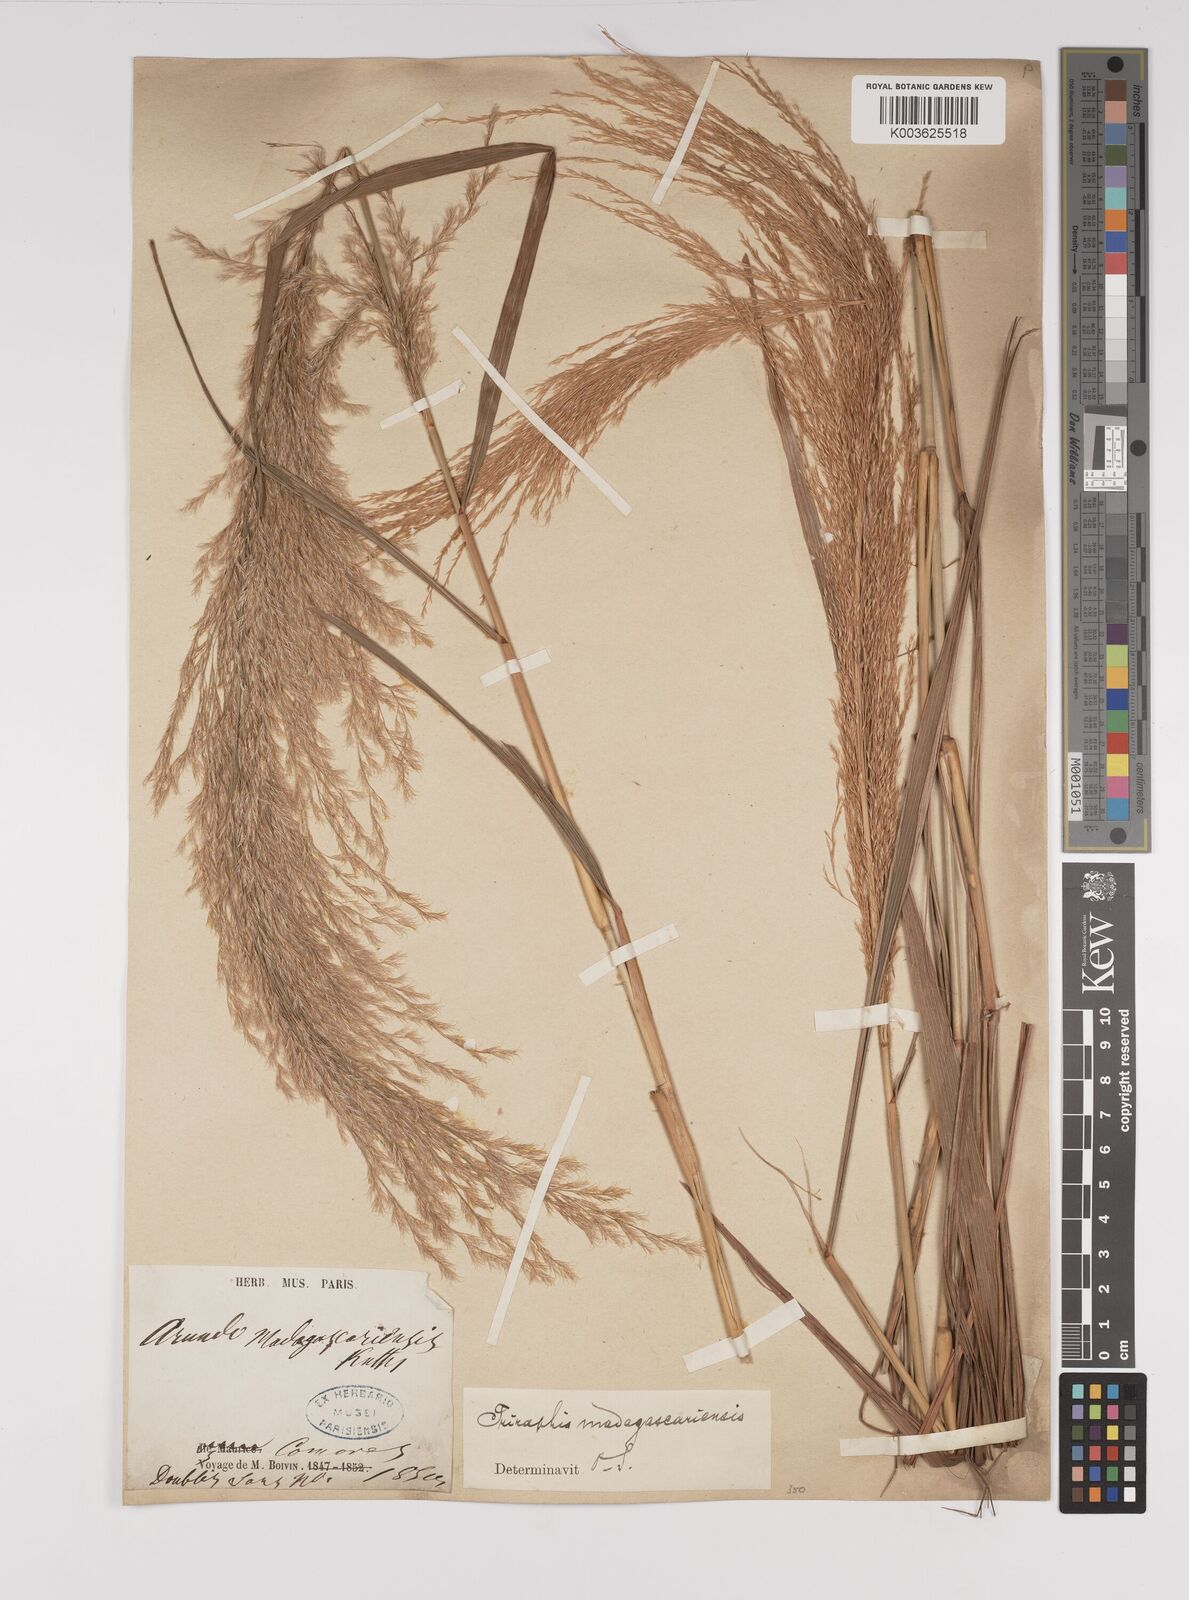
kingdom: Plantae
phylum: Tracheophyta
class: Liliopsida
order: Poales
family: Poaceae
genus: Neyraudia
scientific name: Neyraudia arundinacea
